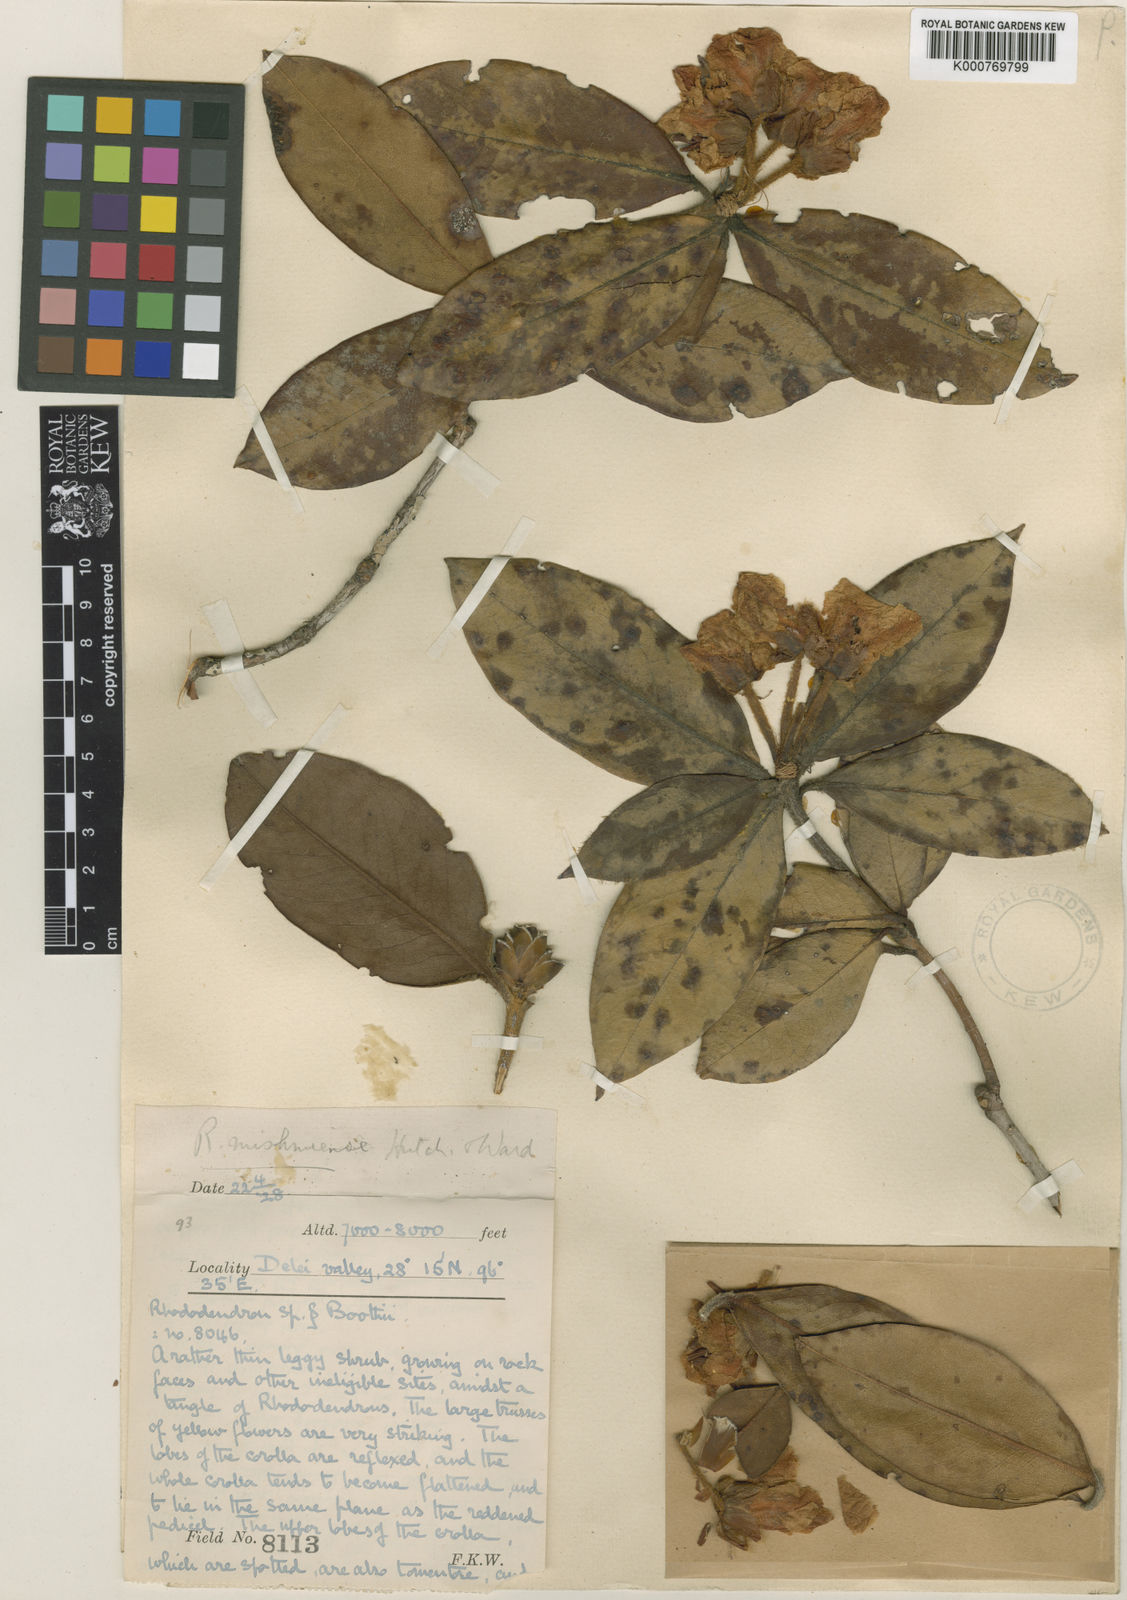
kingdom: Plantae
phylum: Tracheophyta
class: Magnoliopsida
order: Ericales
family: Ericaceae
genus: Rhododendron
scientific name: Rhododendron boothii
